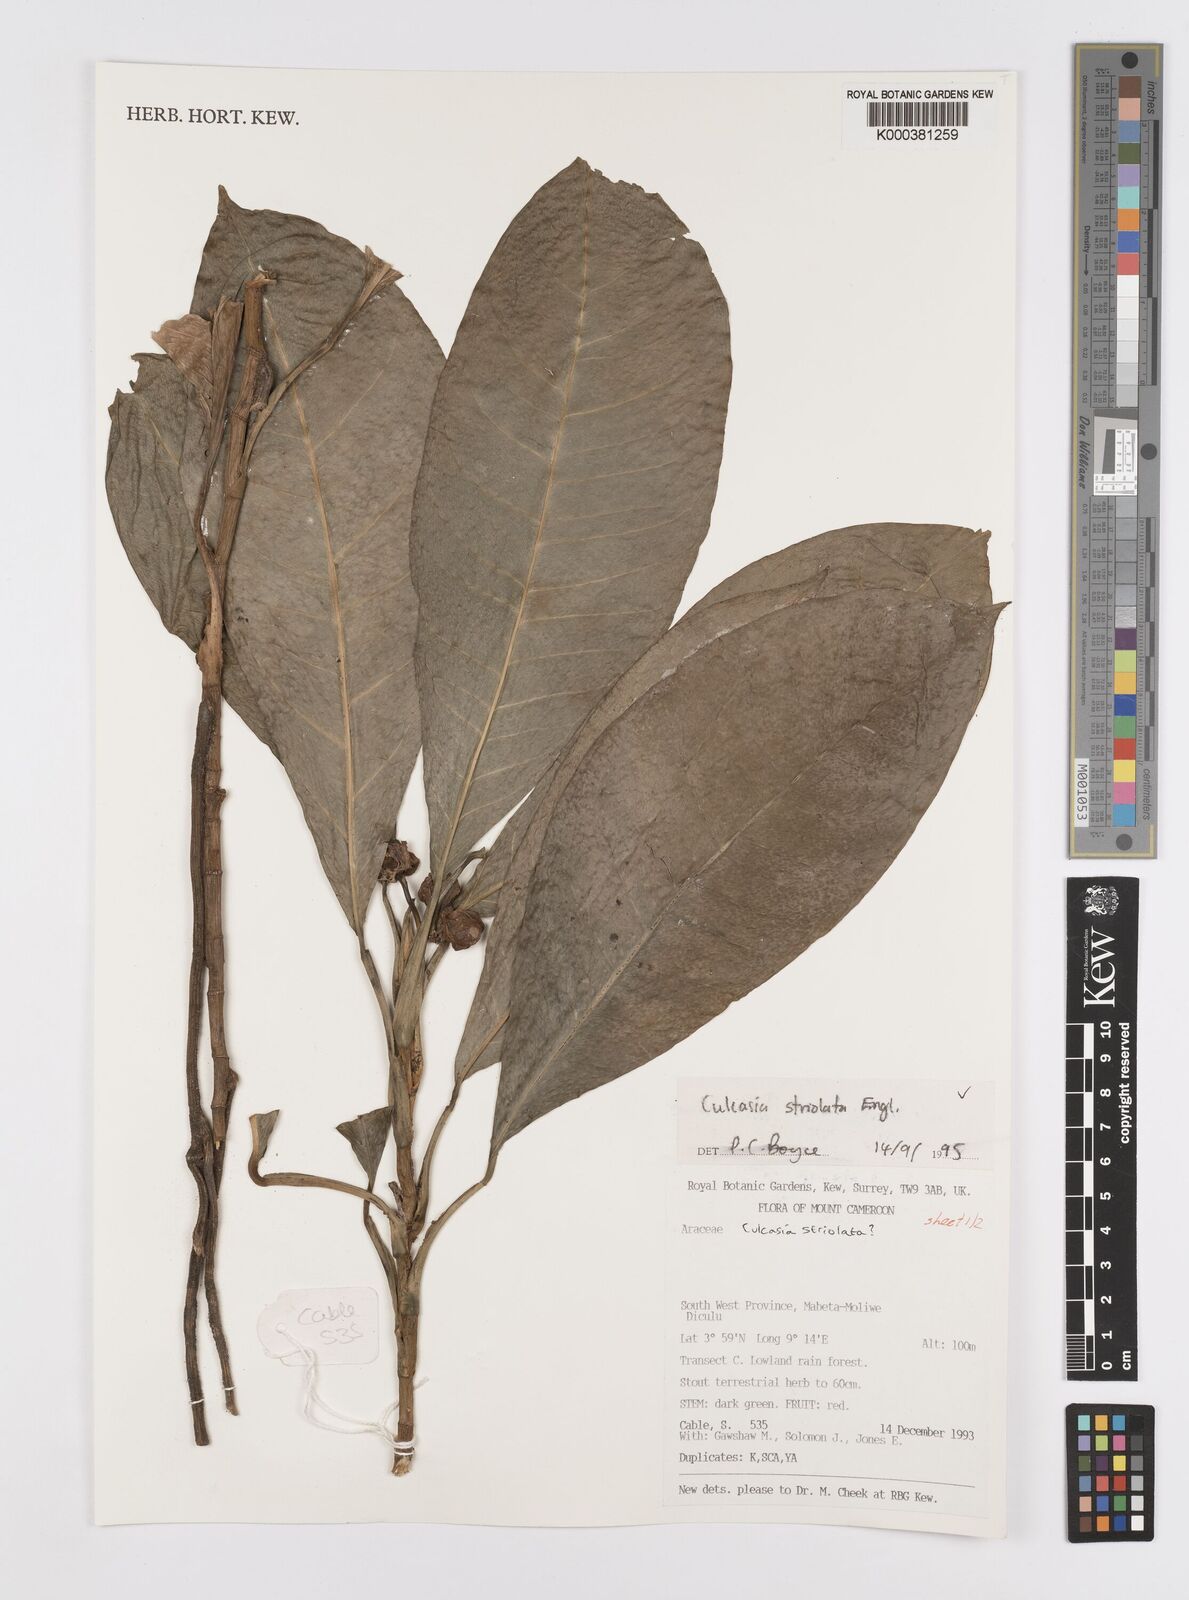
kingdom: Plantae
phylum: Tracheophyta
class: Liliopsida
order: Alismatales
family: Araceae
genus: Culcasia
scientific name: Culcasia striolata
